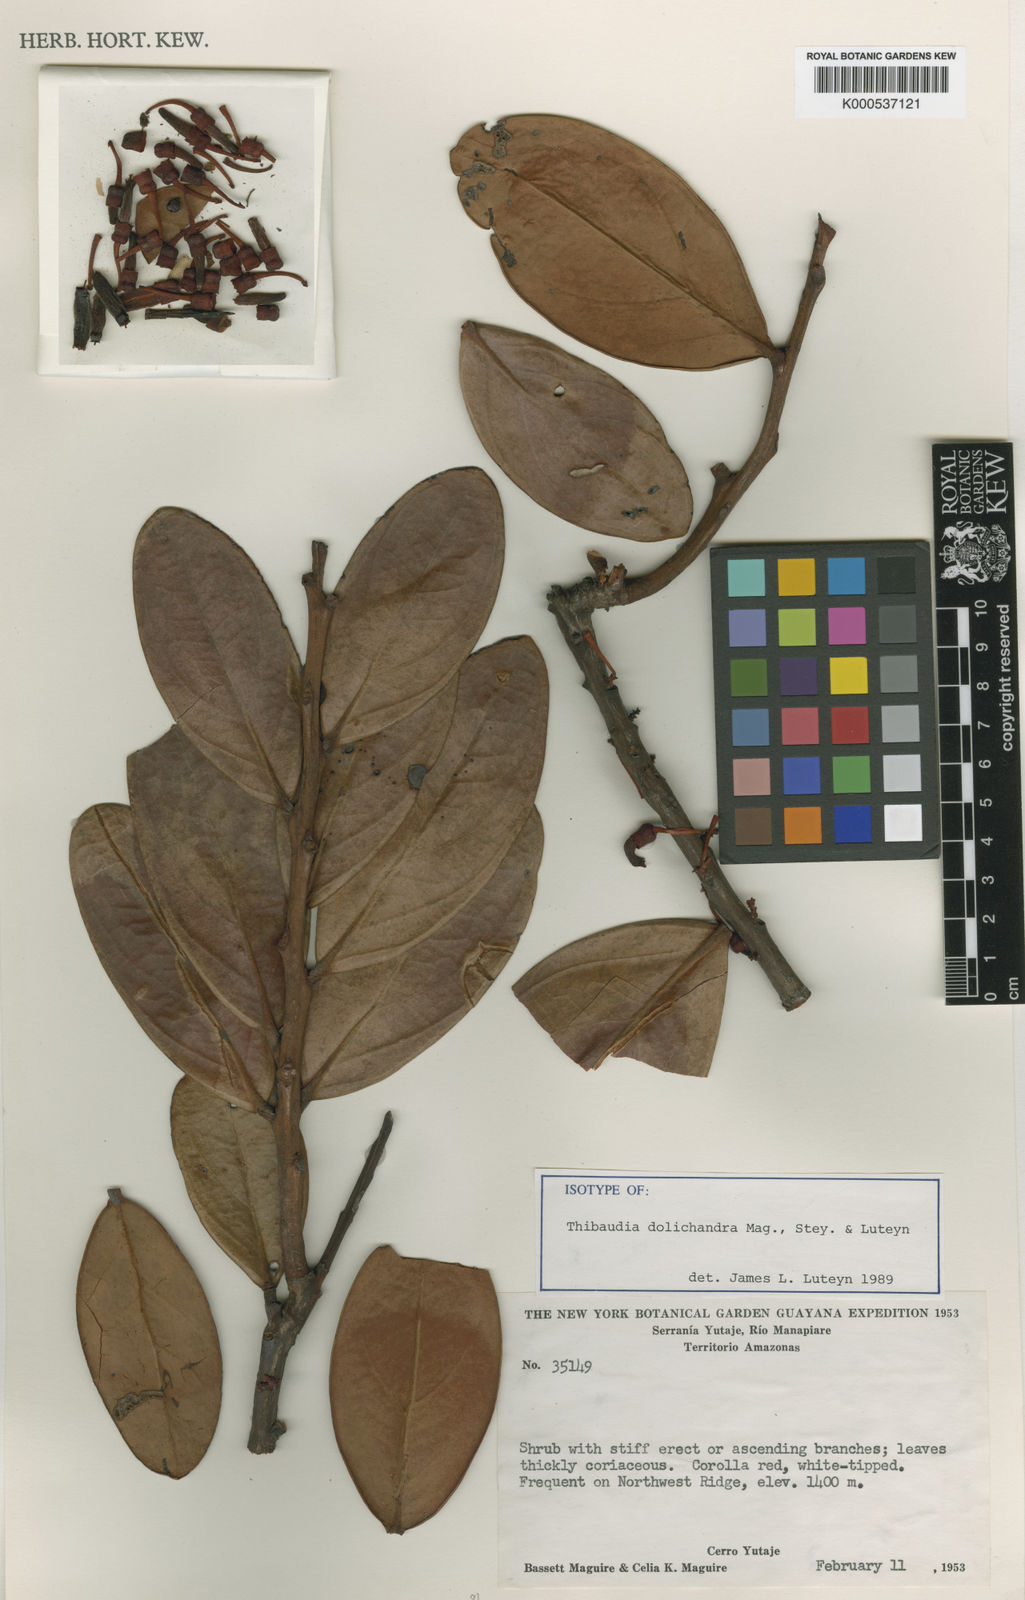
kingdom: Plantae
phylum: Tracheophyta
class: Magnoliopsida
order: Ericales
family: Ericaceae
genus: Thibaudia
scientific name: Thibaudia dolichandra
